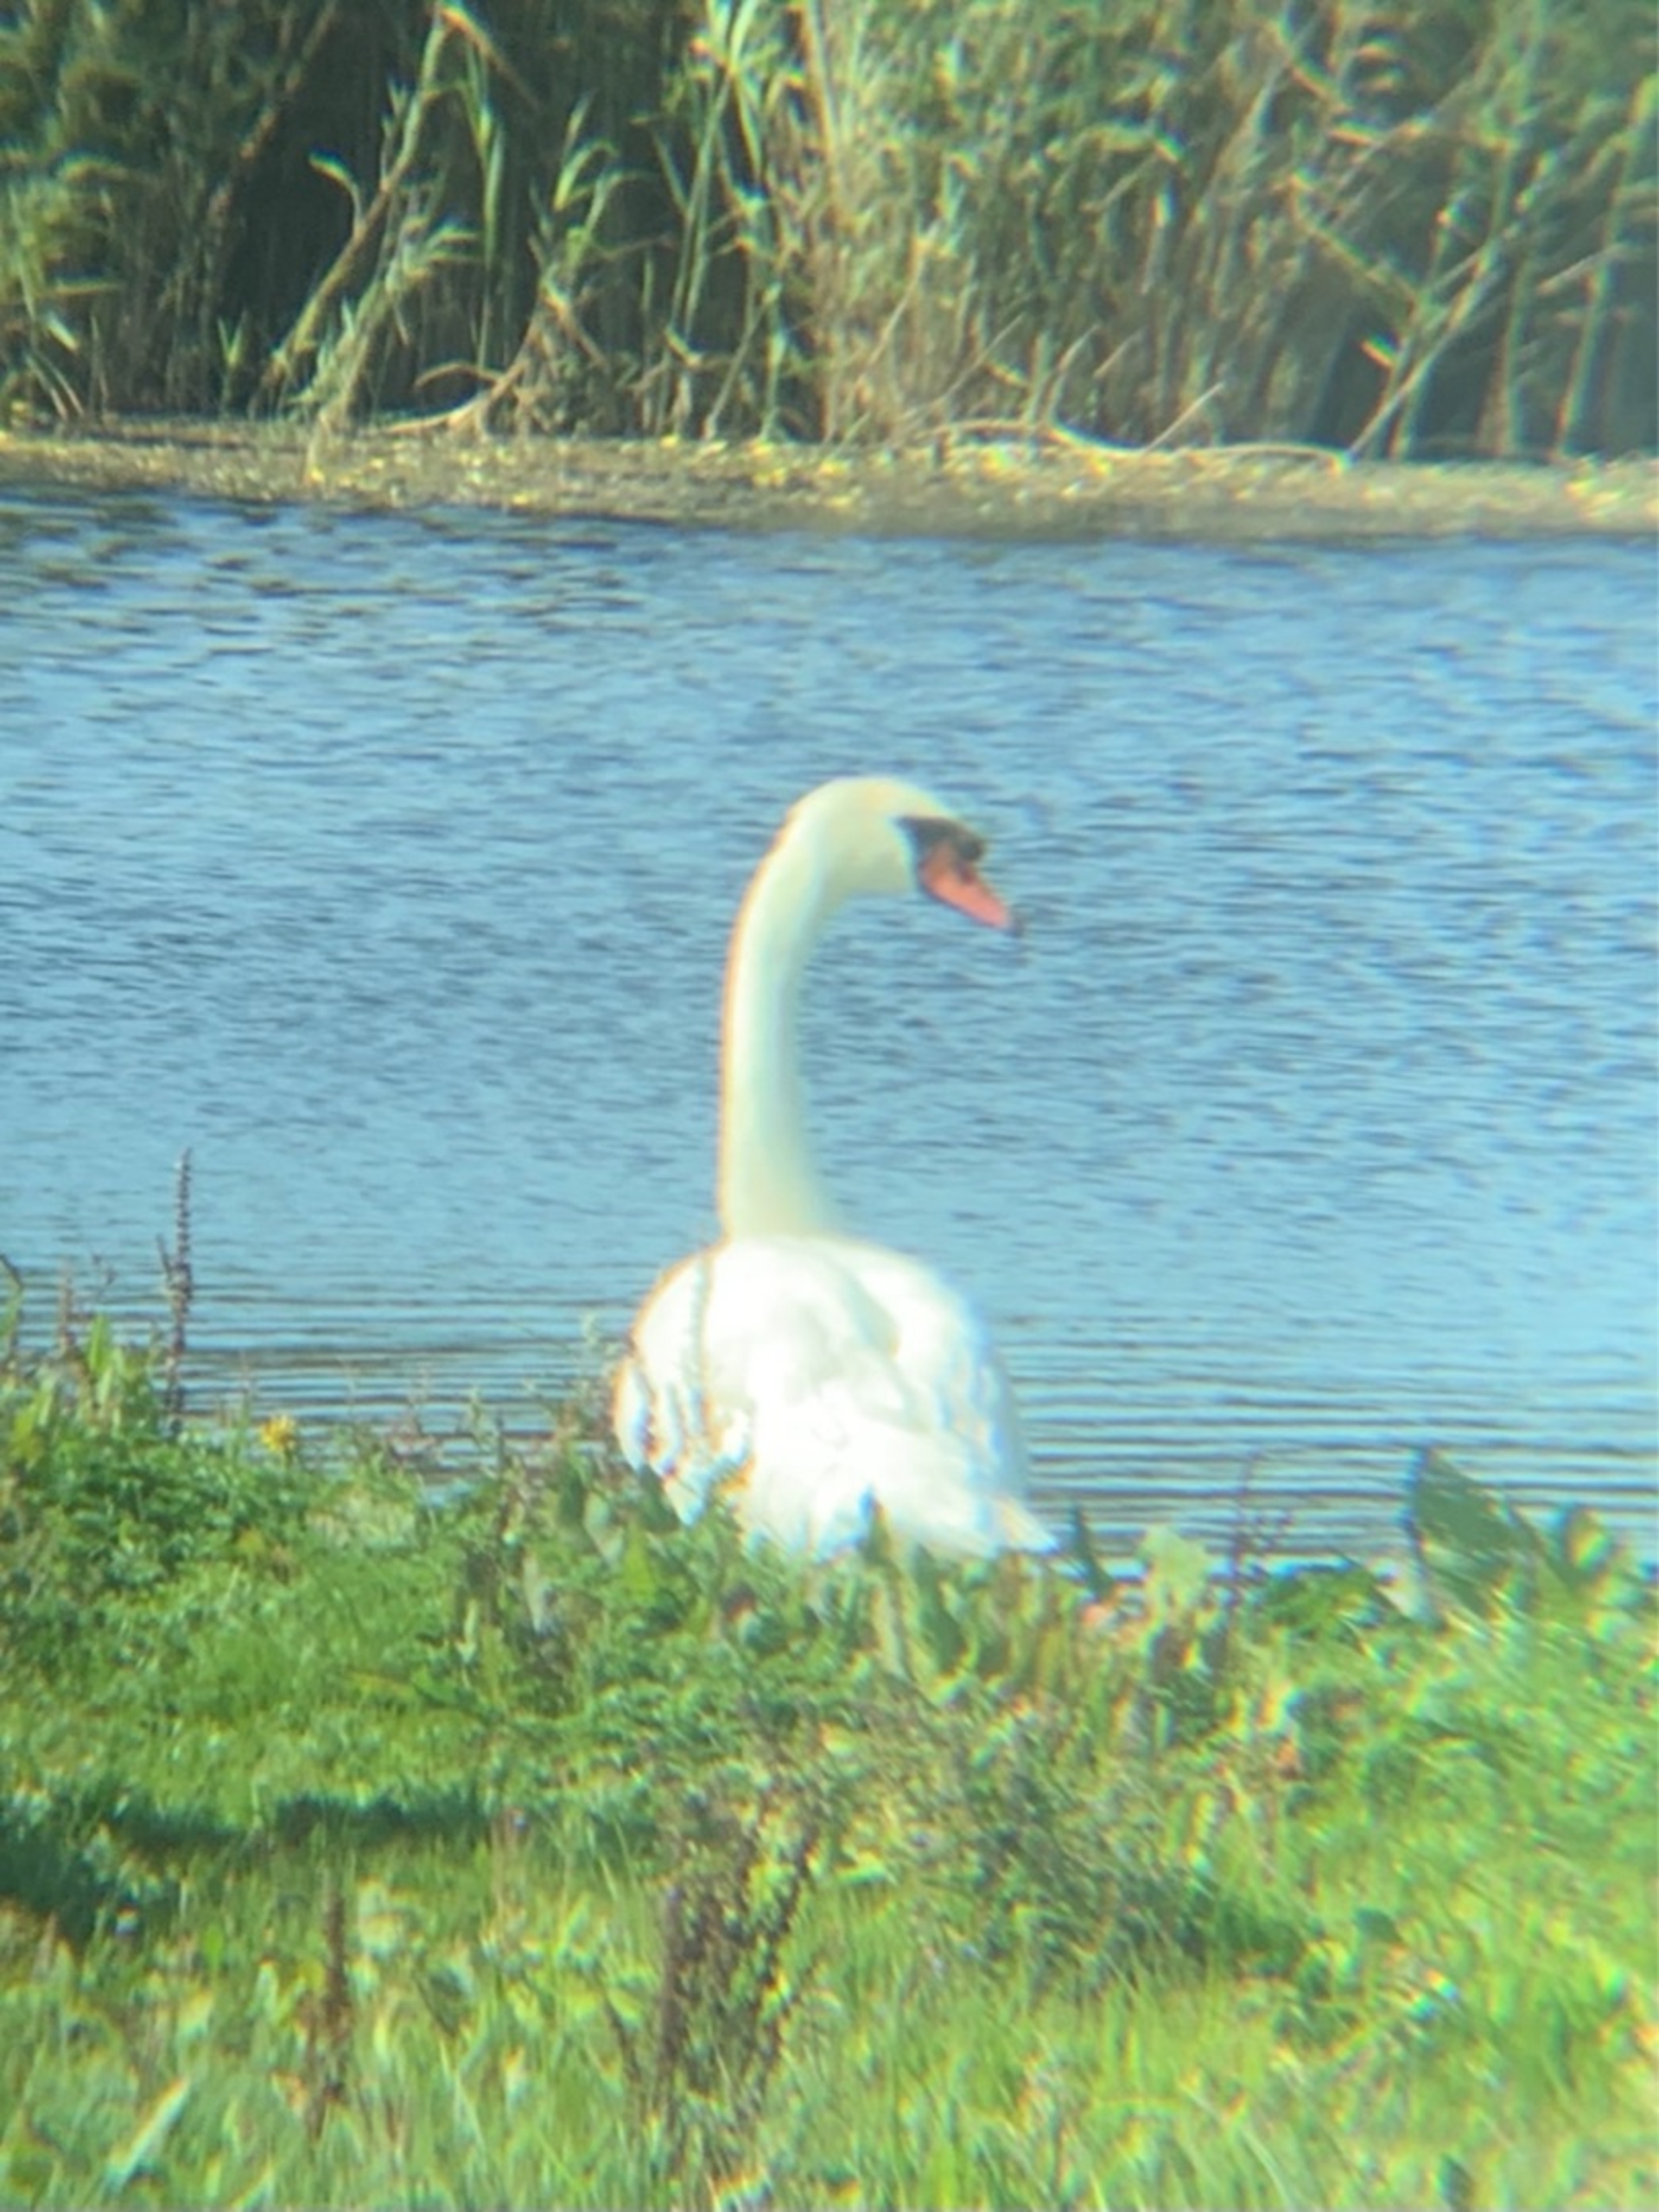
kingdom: Animalia
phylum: Chordata
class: Aves
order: Anseriformes
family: Anatidae
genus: Cygnus
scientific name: Cygnus olor
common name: Knopsvane
